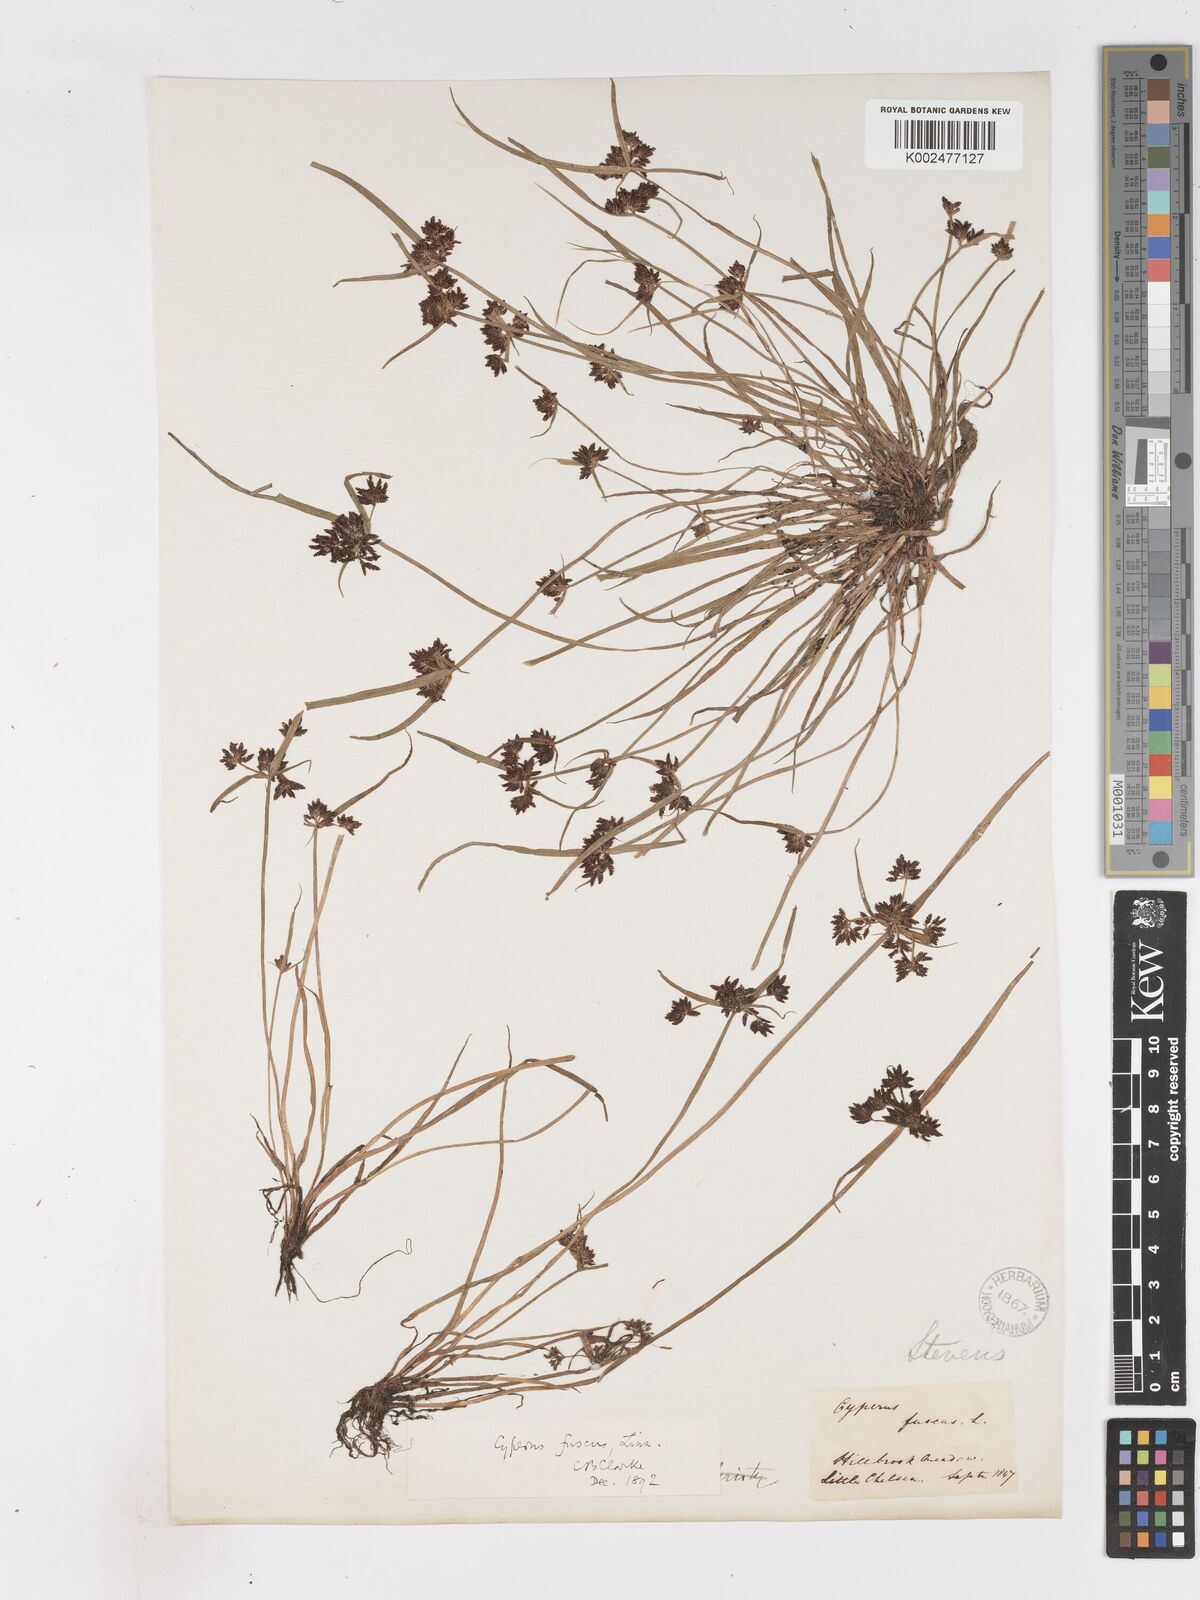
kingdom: Plantae
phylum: Tracheophyta
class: Liliopsida
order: Poales
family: Cyperaceae
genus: Cyperus
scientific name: Cyperus fuscus
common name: Brown galingale
